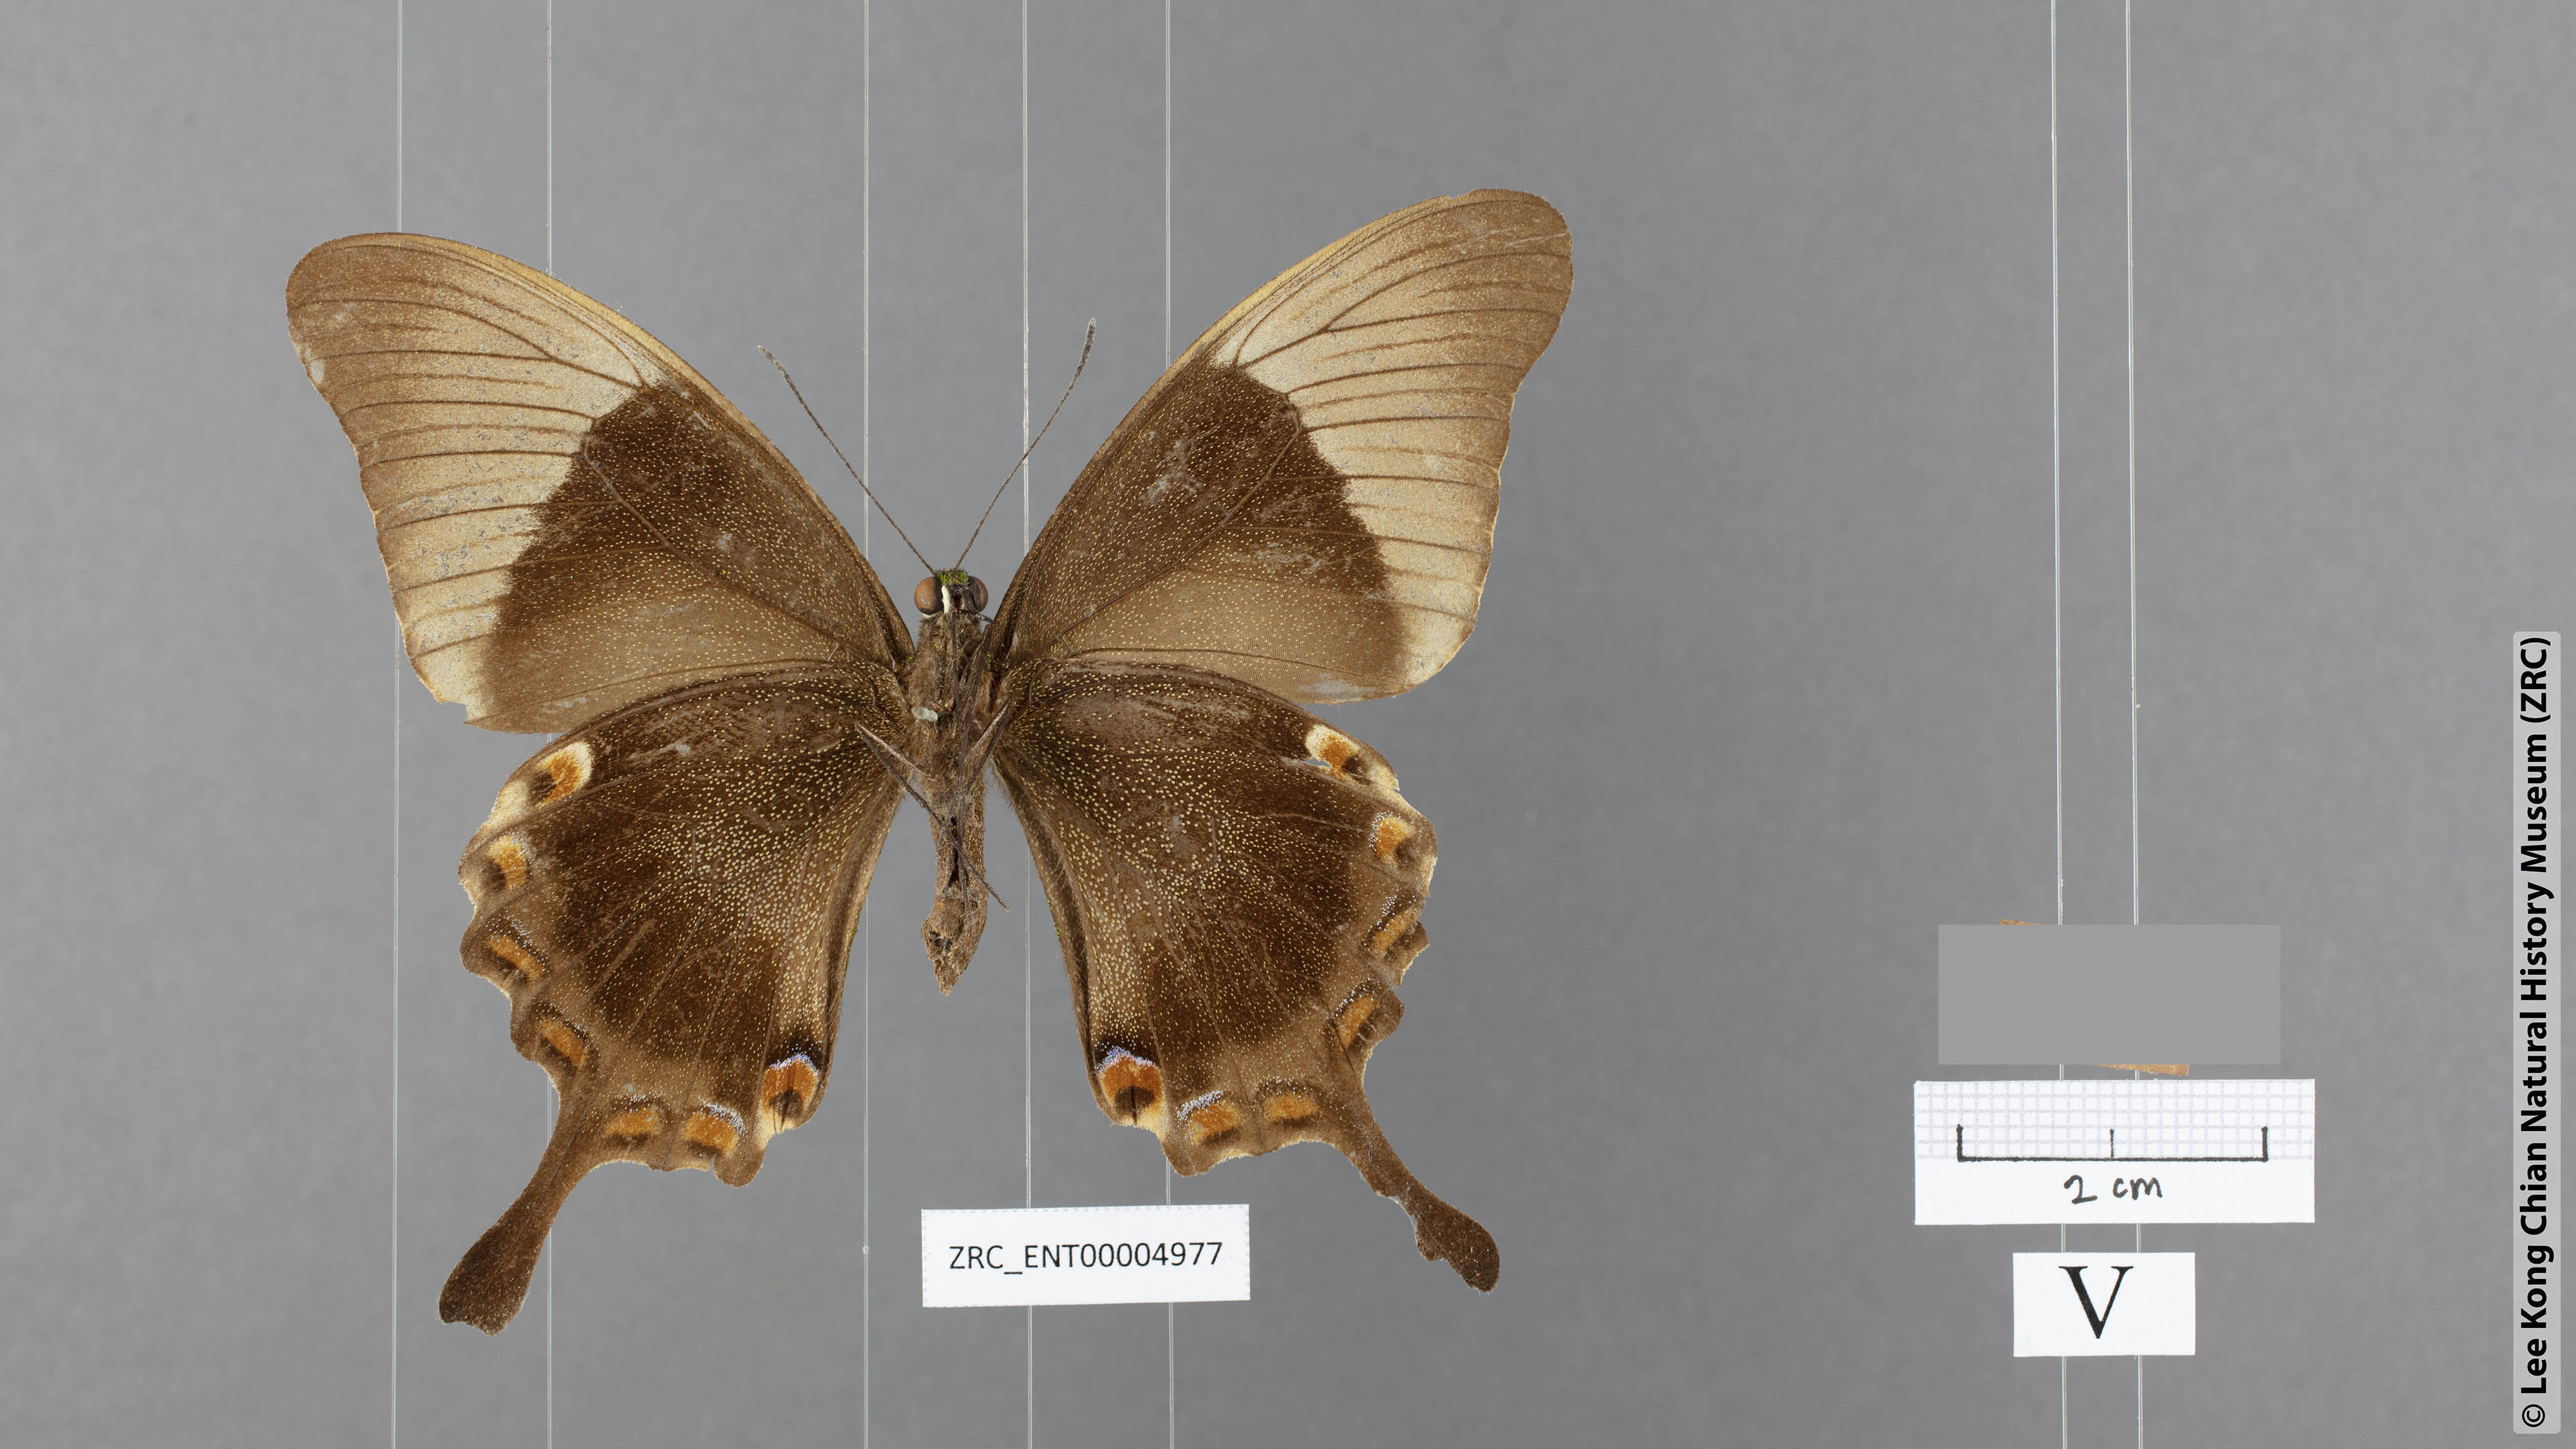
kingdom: Animalia
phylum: Arthropoda
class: Insecta
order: Lepidoptera
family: Papilionidae
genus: Papilio
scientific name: Papilio palinurus
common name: Banded peacock
